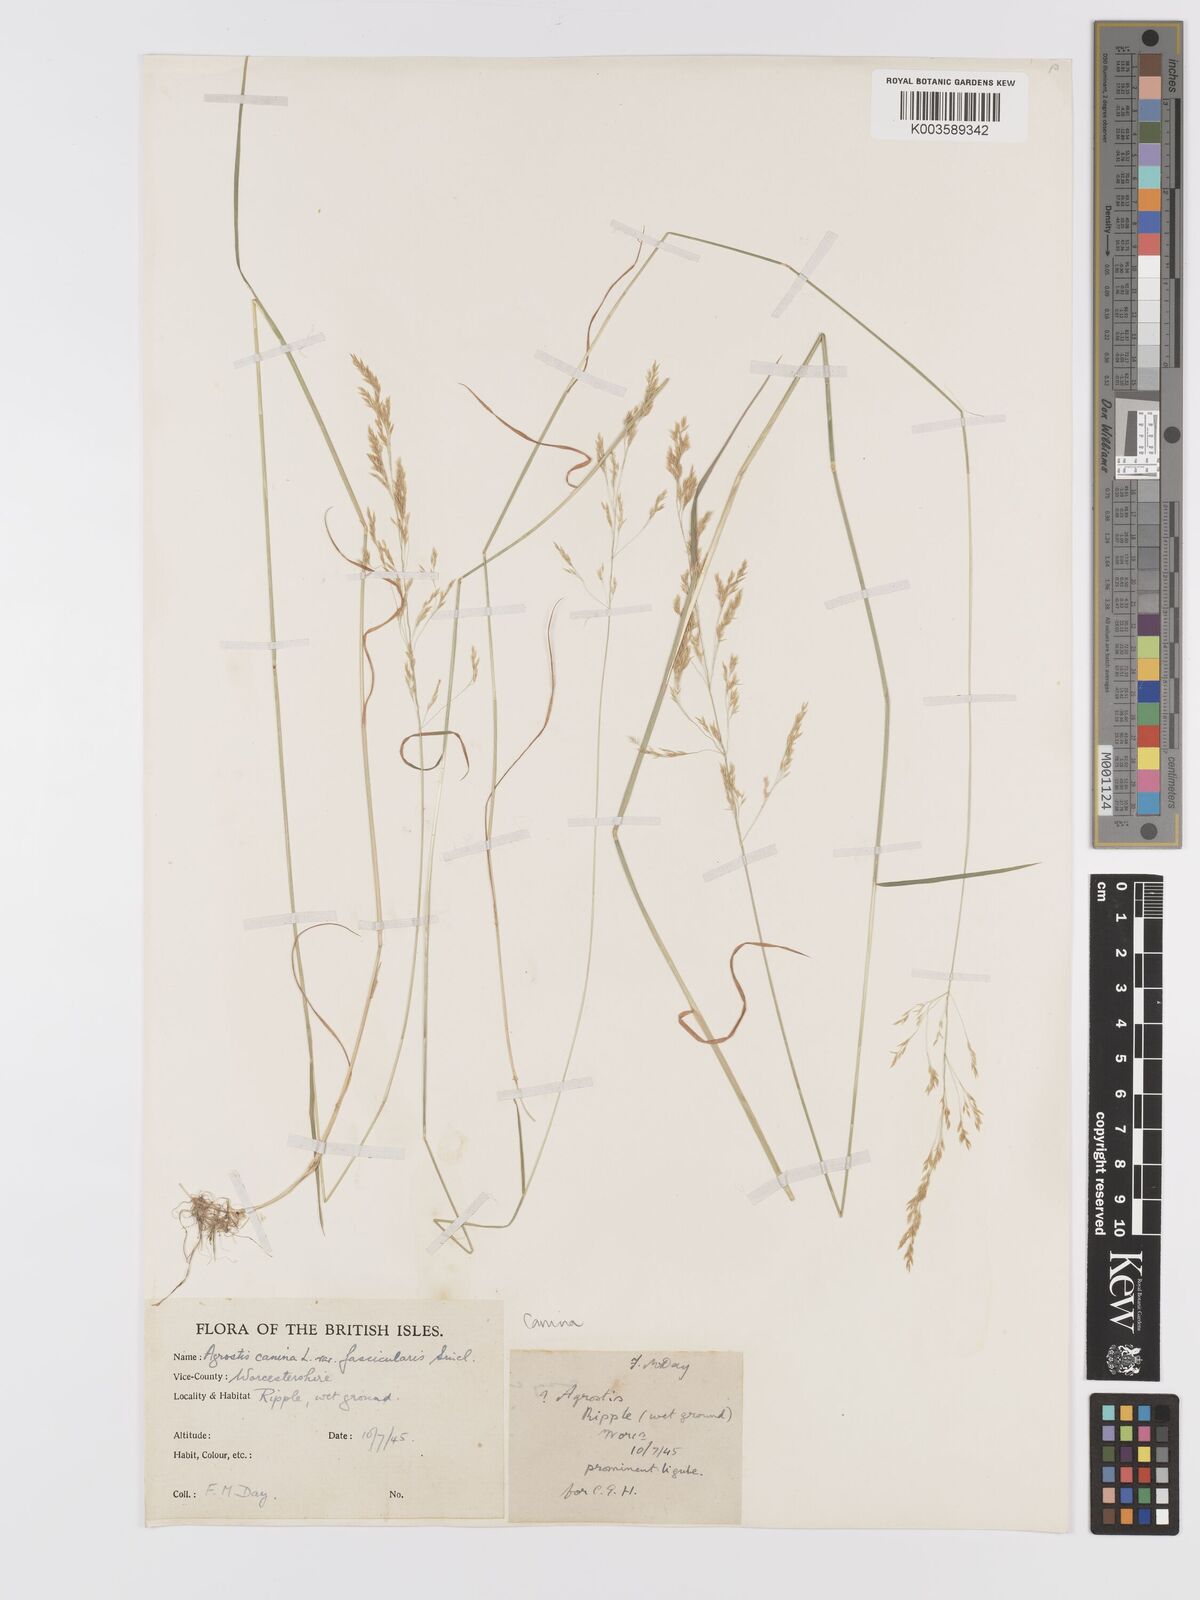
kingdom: Plantae
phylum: Tracheophyta
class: Liliopsida
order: Poales
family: Poaceae
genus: Agrostis
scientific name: Agrostis canina
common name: Velvet bent
